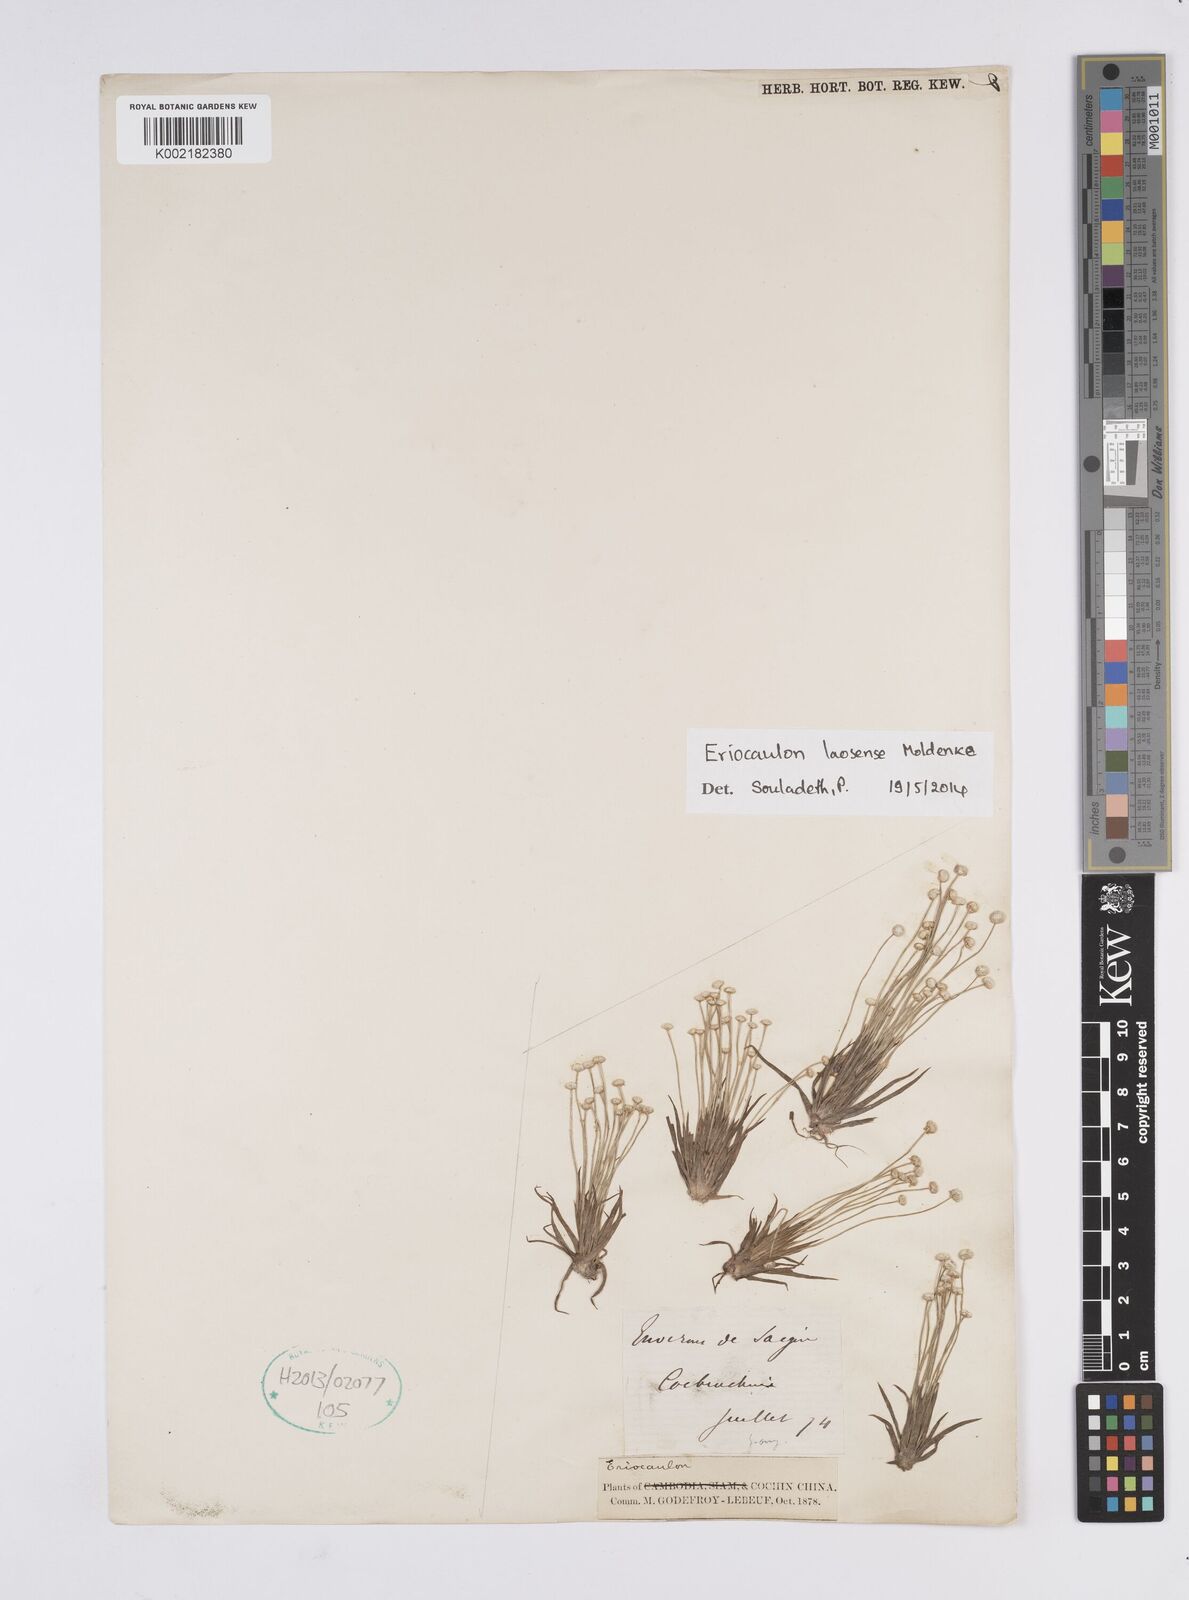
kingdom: Plantae
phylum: Tracheophyta
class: Liliopsida
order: Poales
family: Eriocaulaceae
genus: Eriocaulon
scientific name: Eriocaulon laosense
